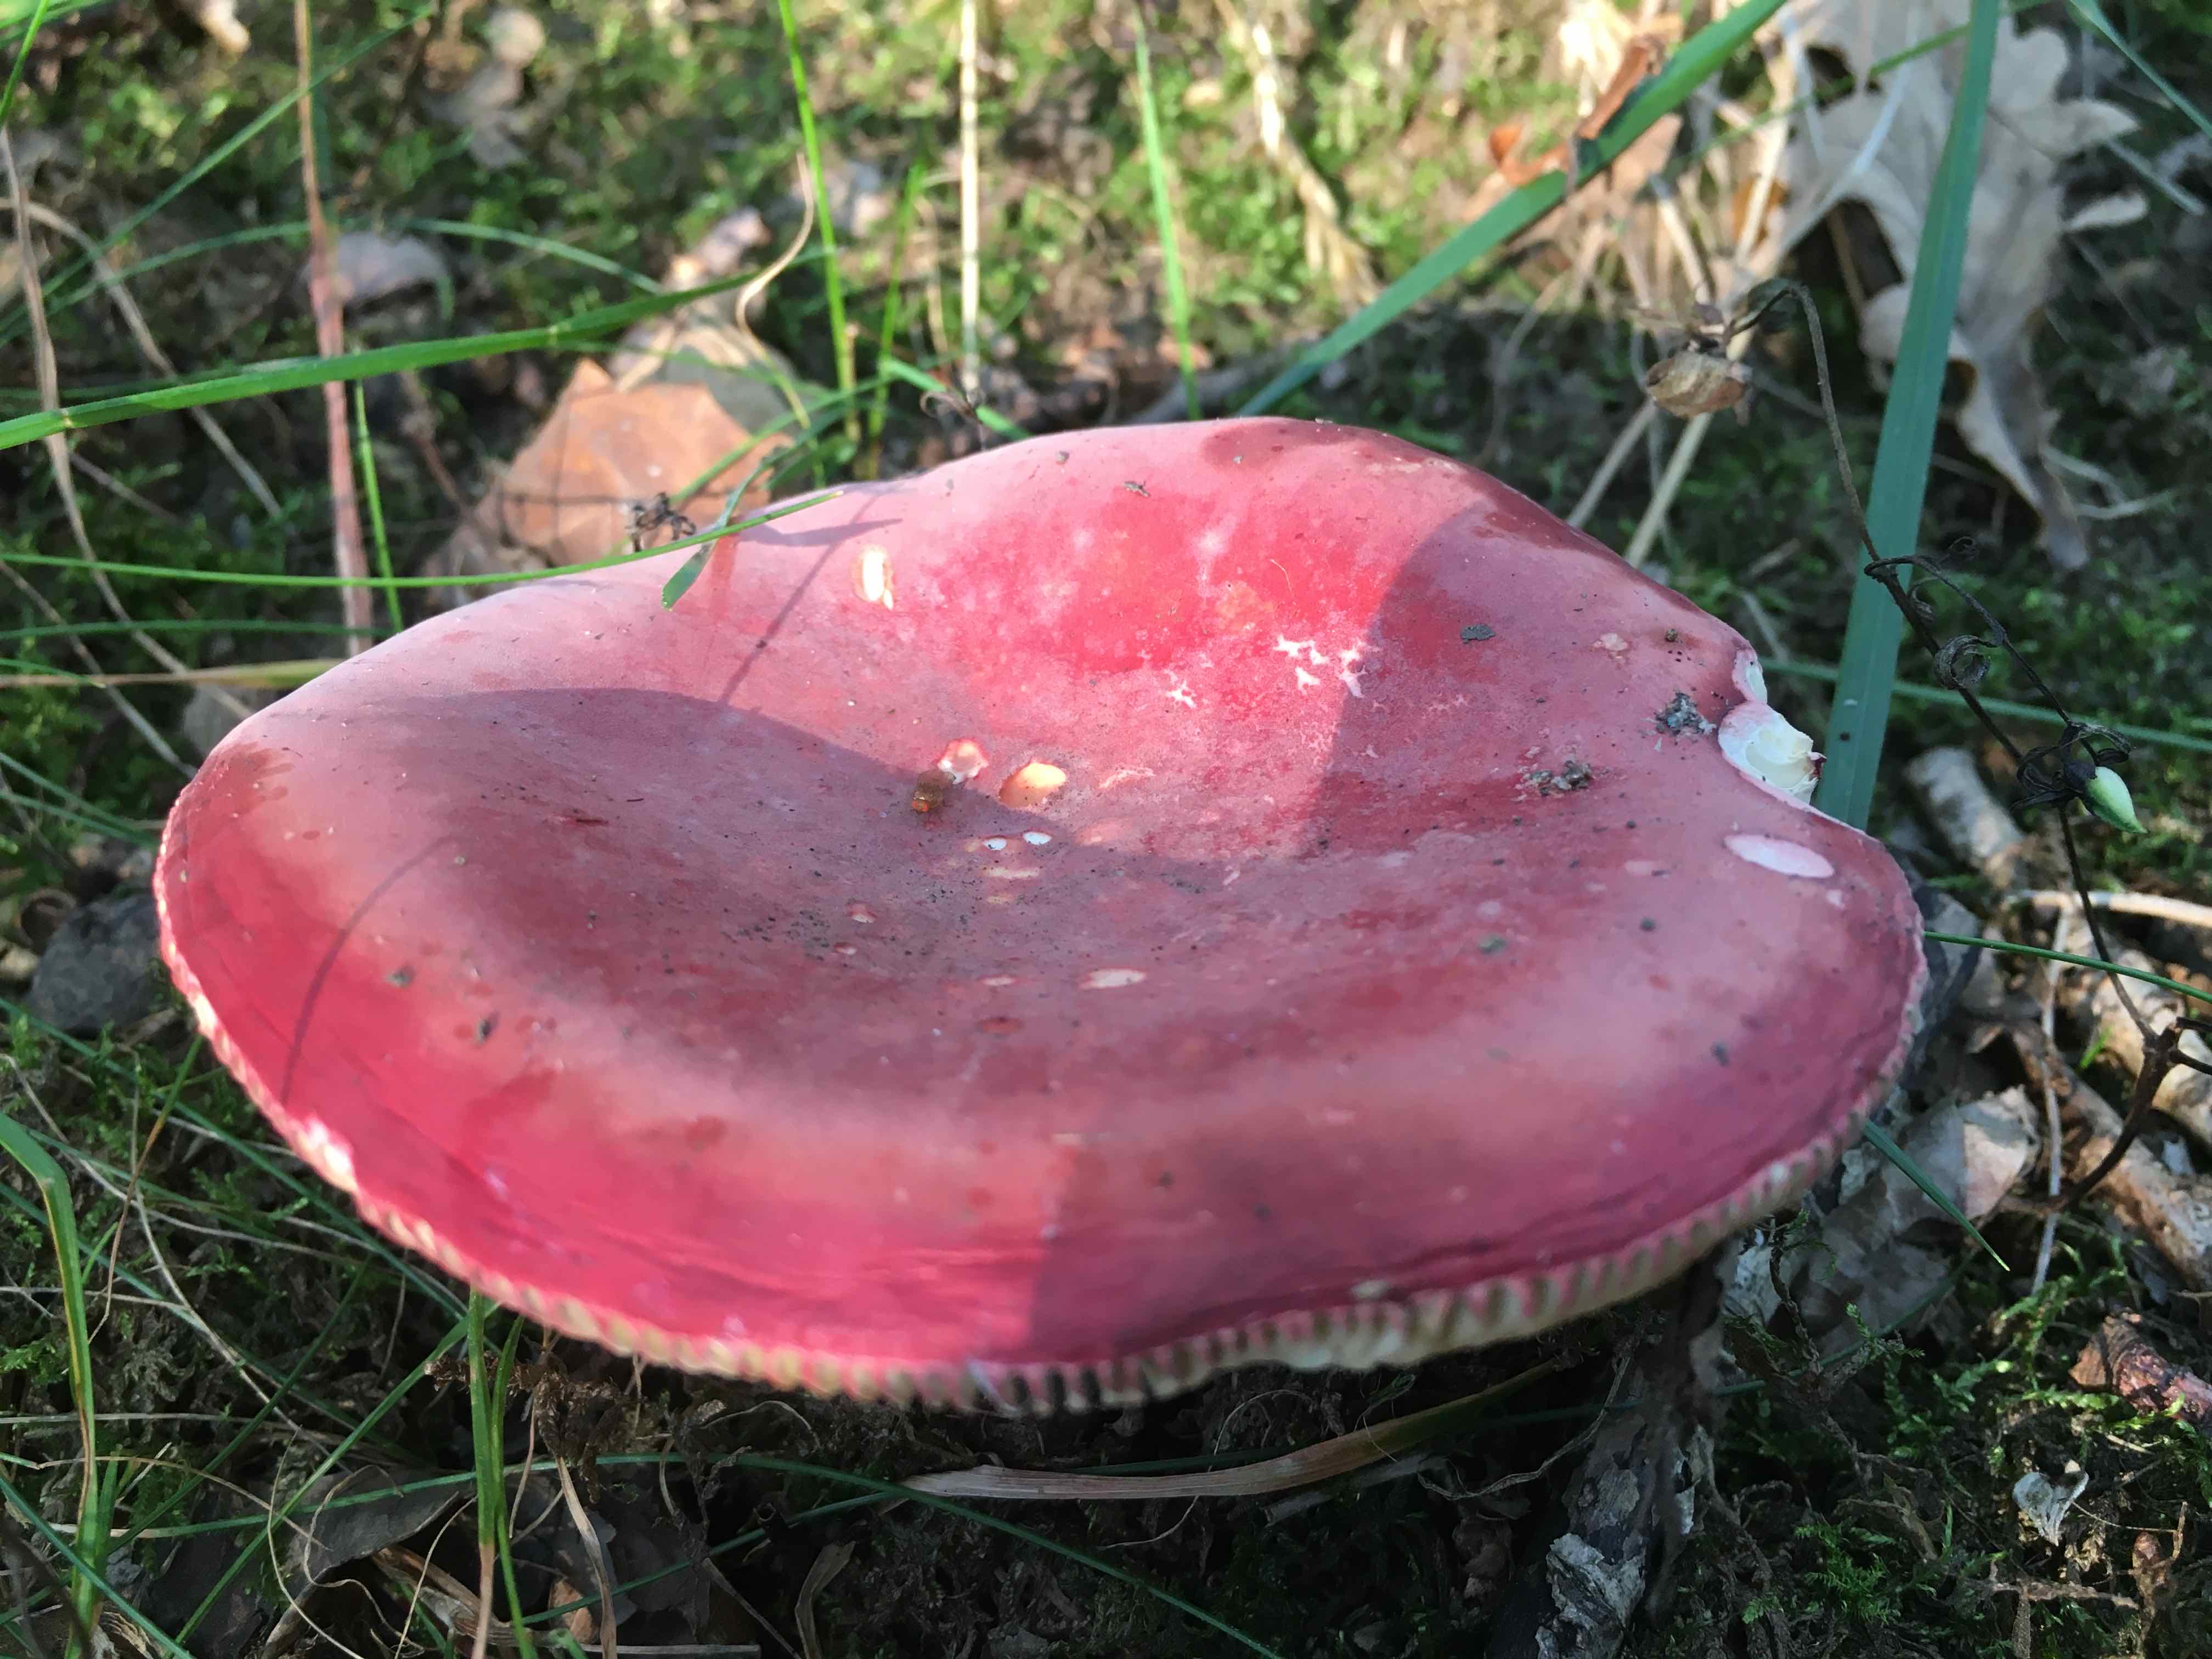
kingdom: Fungi
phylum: Basidiomycota
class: Agaricomycetes
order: Russulales
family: Russulaceae
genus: Russula
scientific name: Russula
